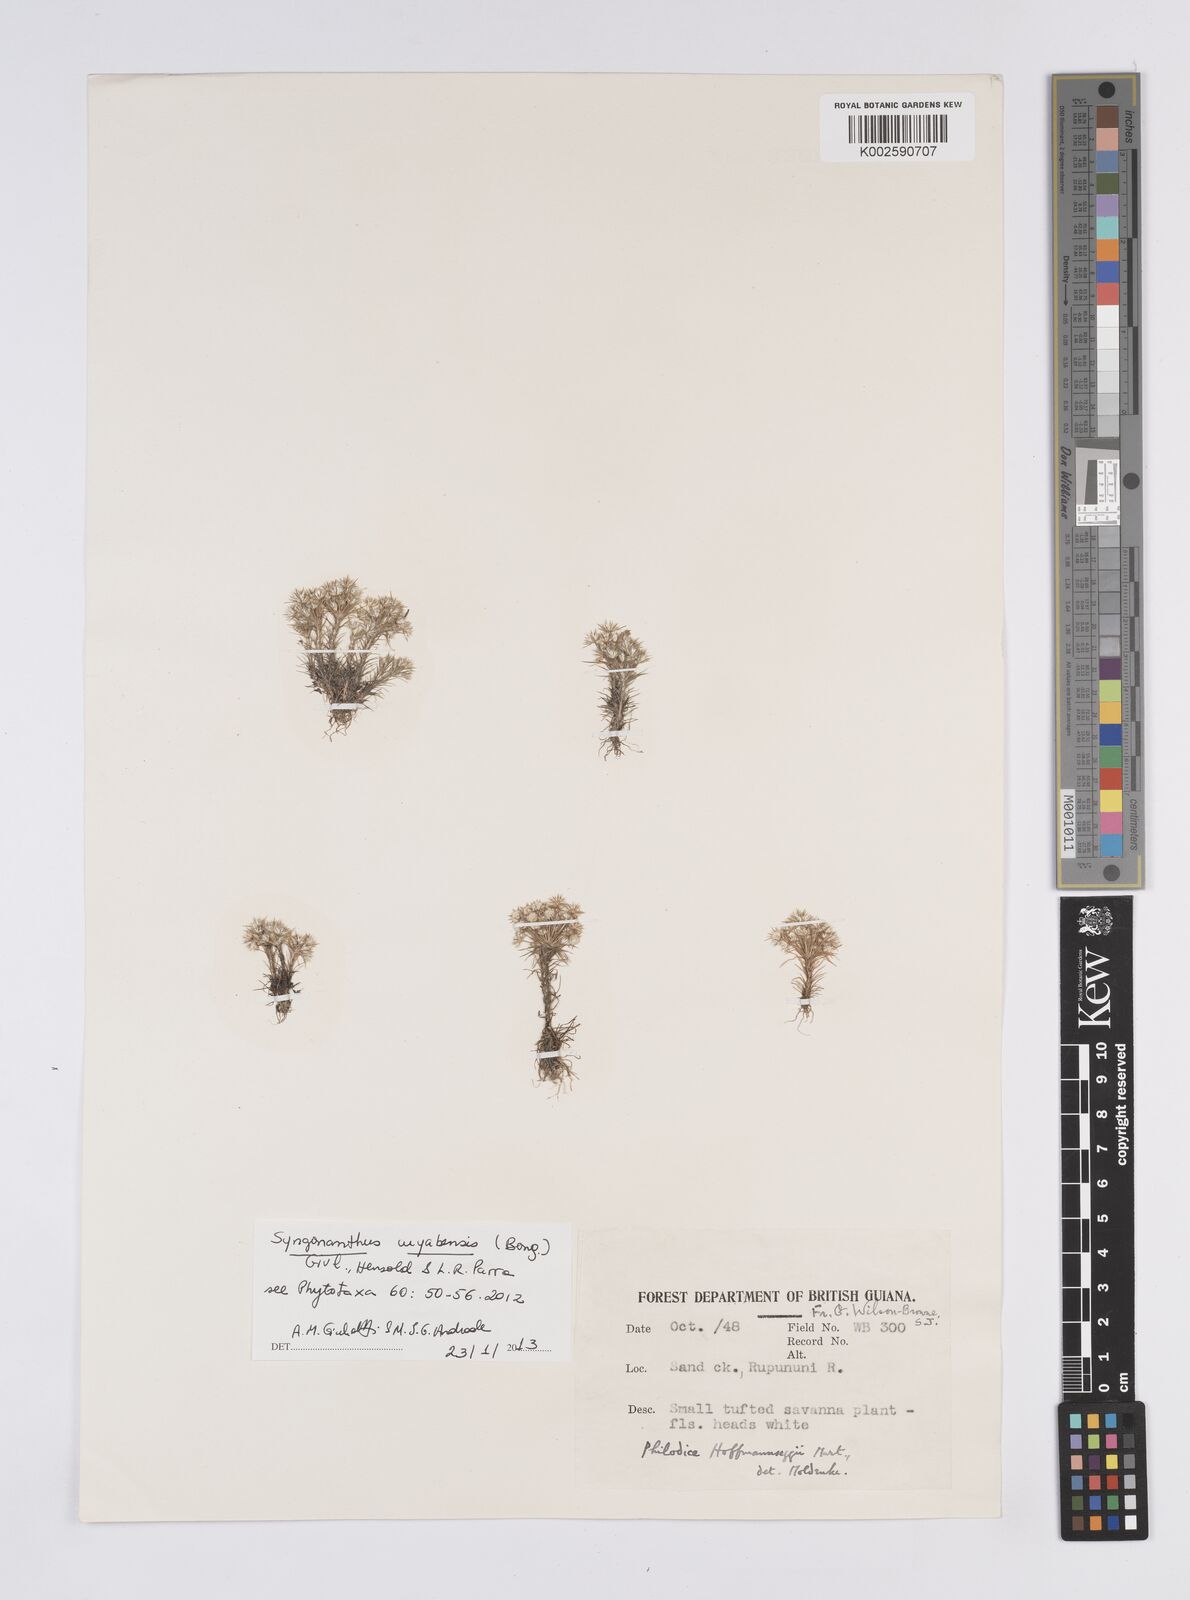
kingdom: Plantae
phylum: Tracheophyta
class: Liliopsida
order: Poales
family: Eriocaulaceae
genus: Syngonanthus
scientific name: Syngonanthus cuyabensis
